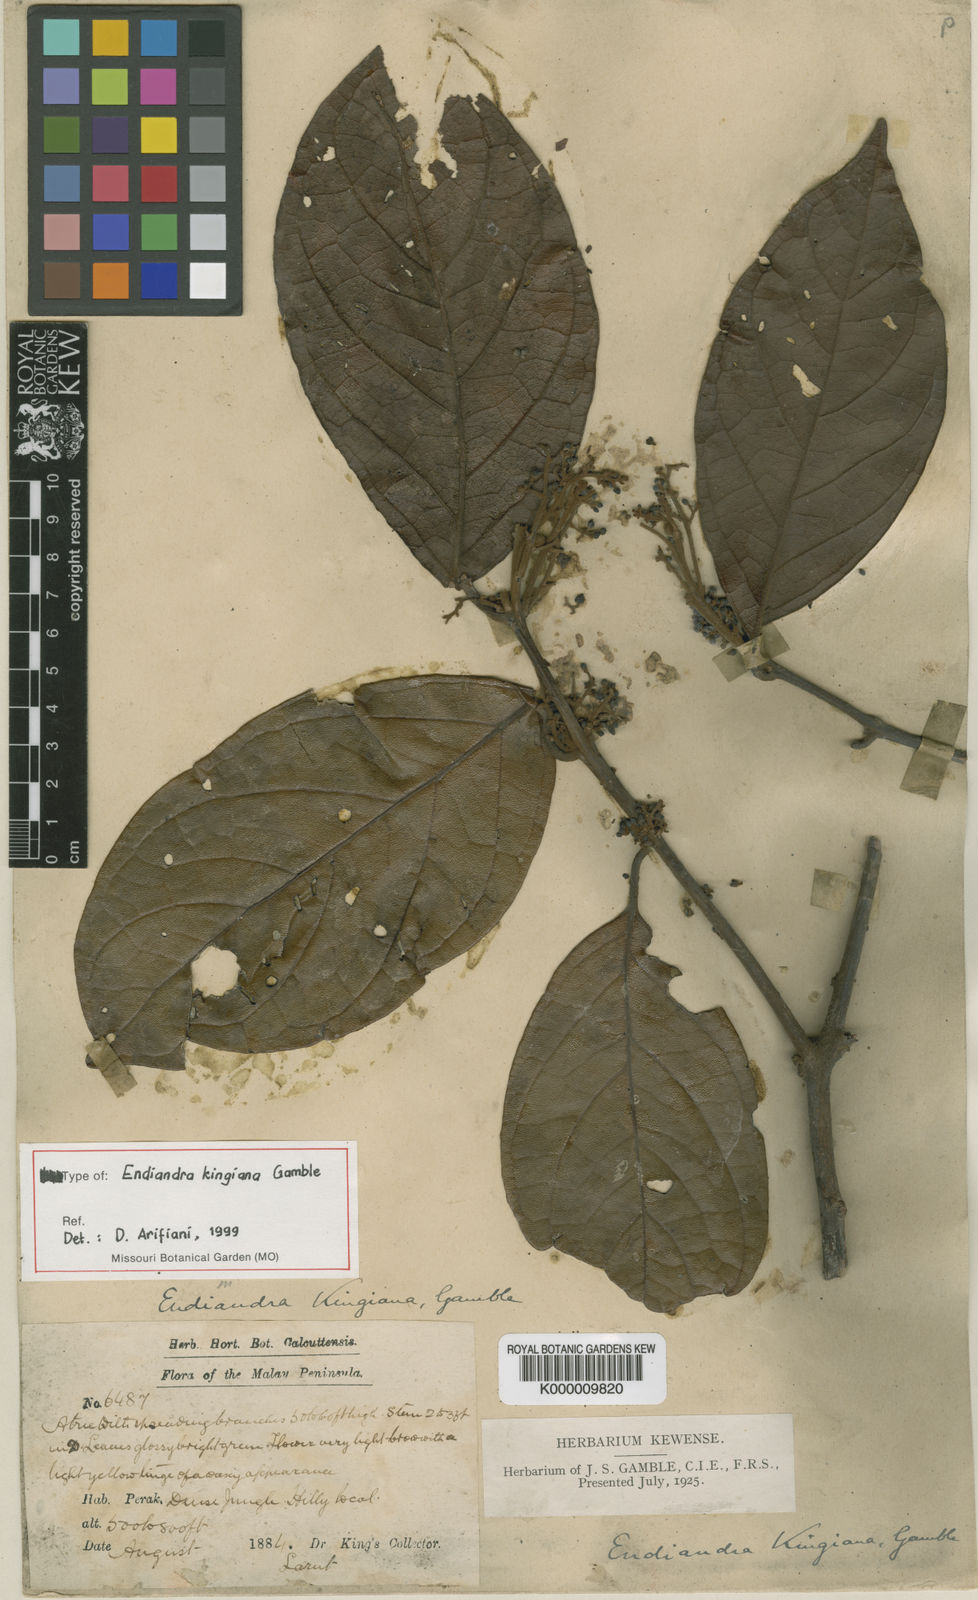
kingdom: Plantae
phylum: Tracheophyta
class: Magnoliopsida
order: Laurales
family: Lauraceae
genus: Endiandra
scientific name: Endiandra kingiana
